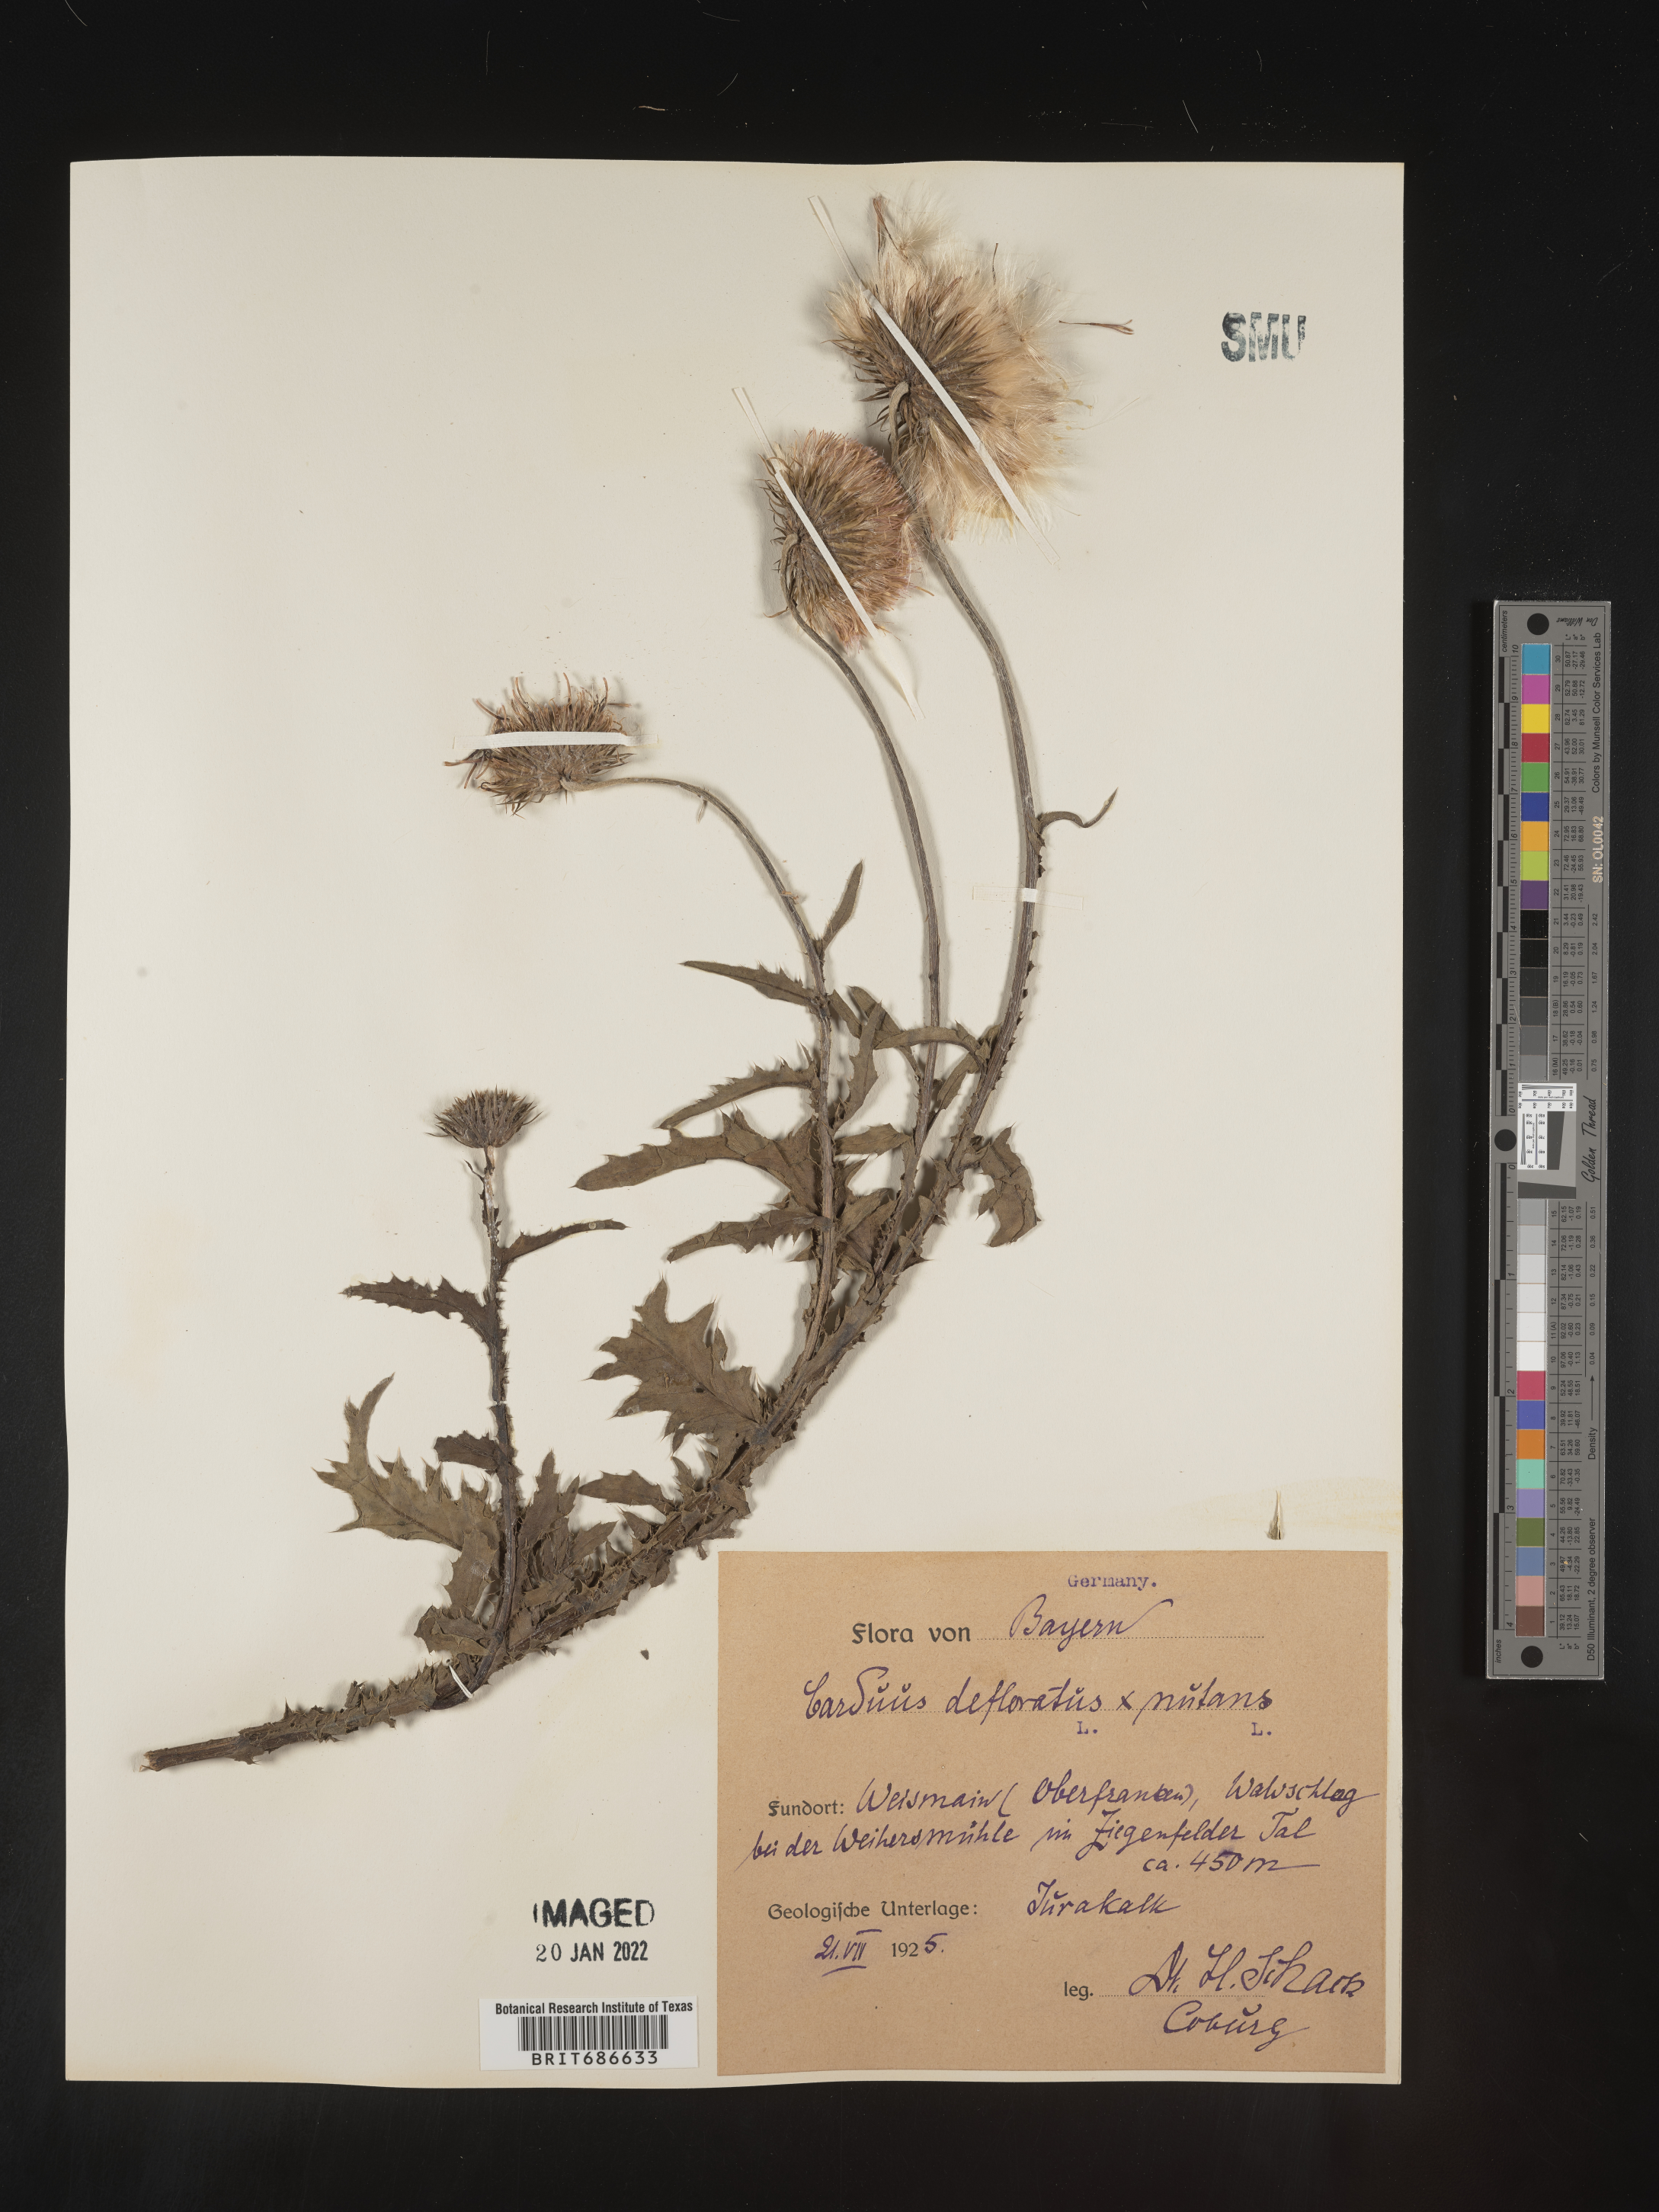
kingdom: Plantae
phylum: Tracheophyta
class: Magnoliopsida
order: Asterales
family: Asteraceae
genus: Carduus
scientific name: Carduus
